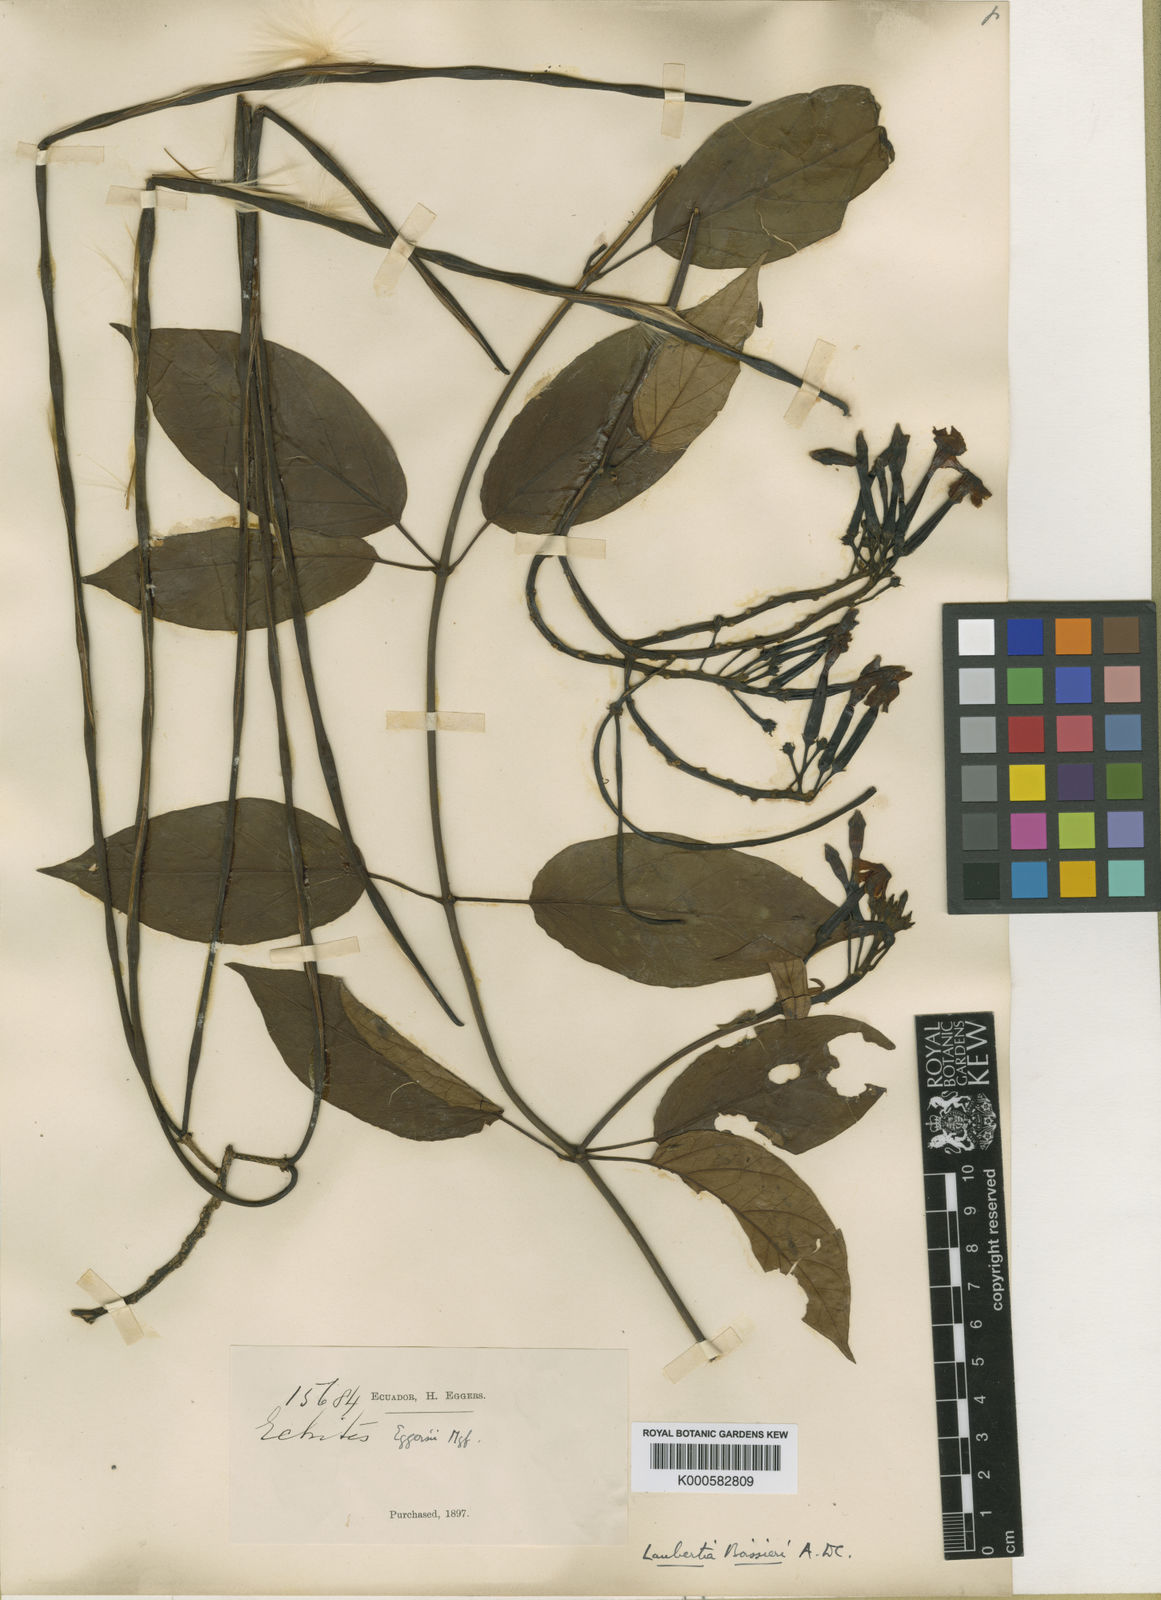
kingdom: Plantae
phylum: Tracheophyta
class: Magnoliopsida
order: Gentianales
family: Apocynaceae
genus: Laubertia
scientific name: Laubertia boissieri
